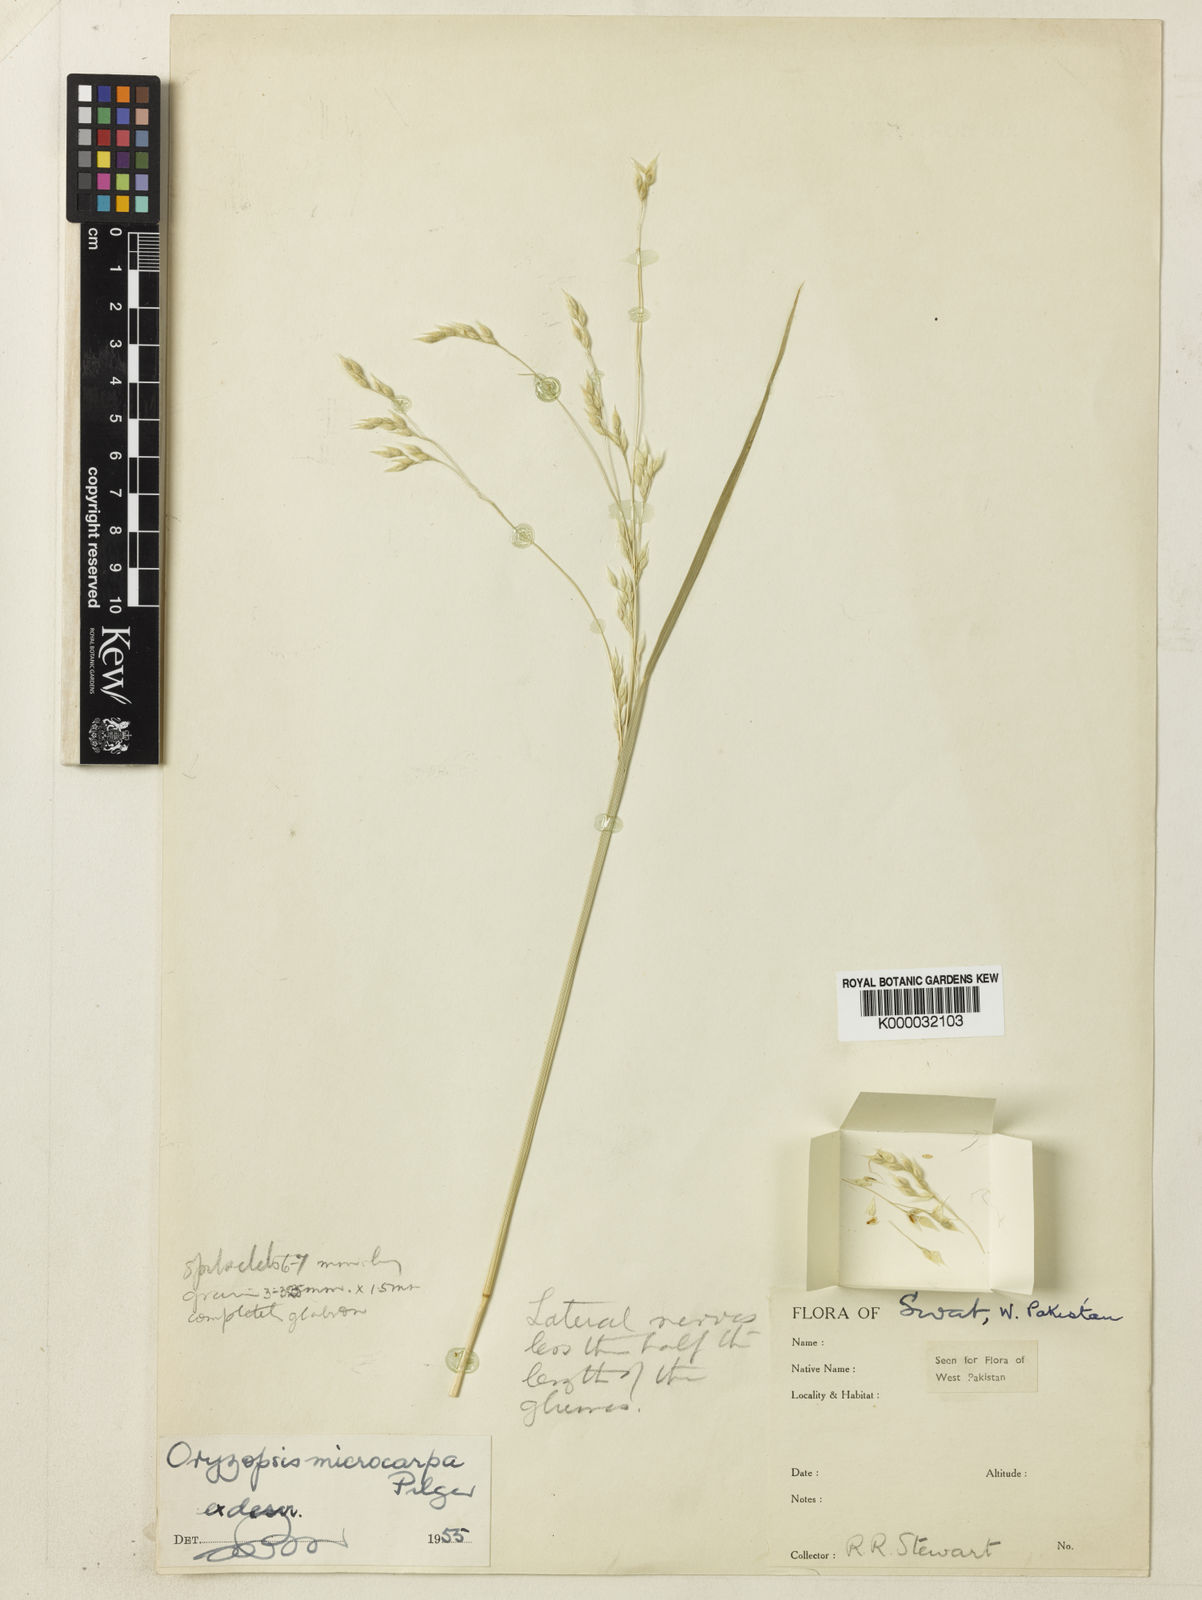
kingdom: Plantae
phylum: Tracheophyta
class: Liliopsida
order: Poales
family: Poaceae
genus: Piptatherum
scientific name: Piptatherum microcarpum
